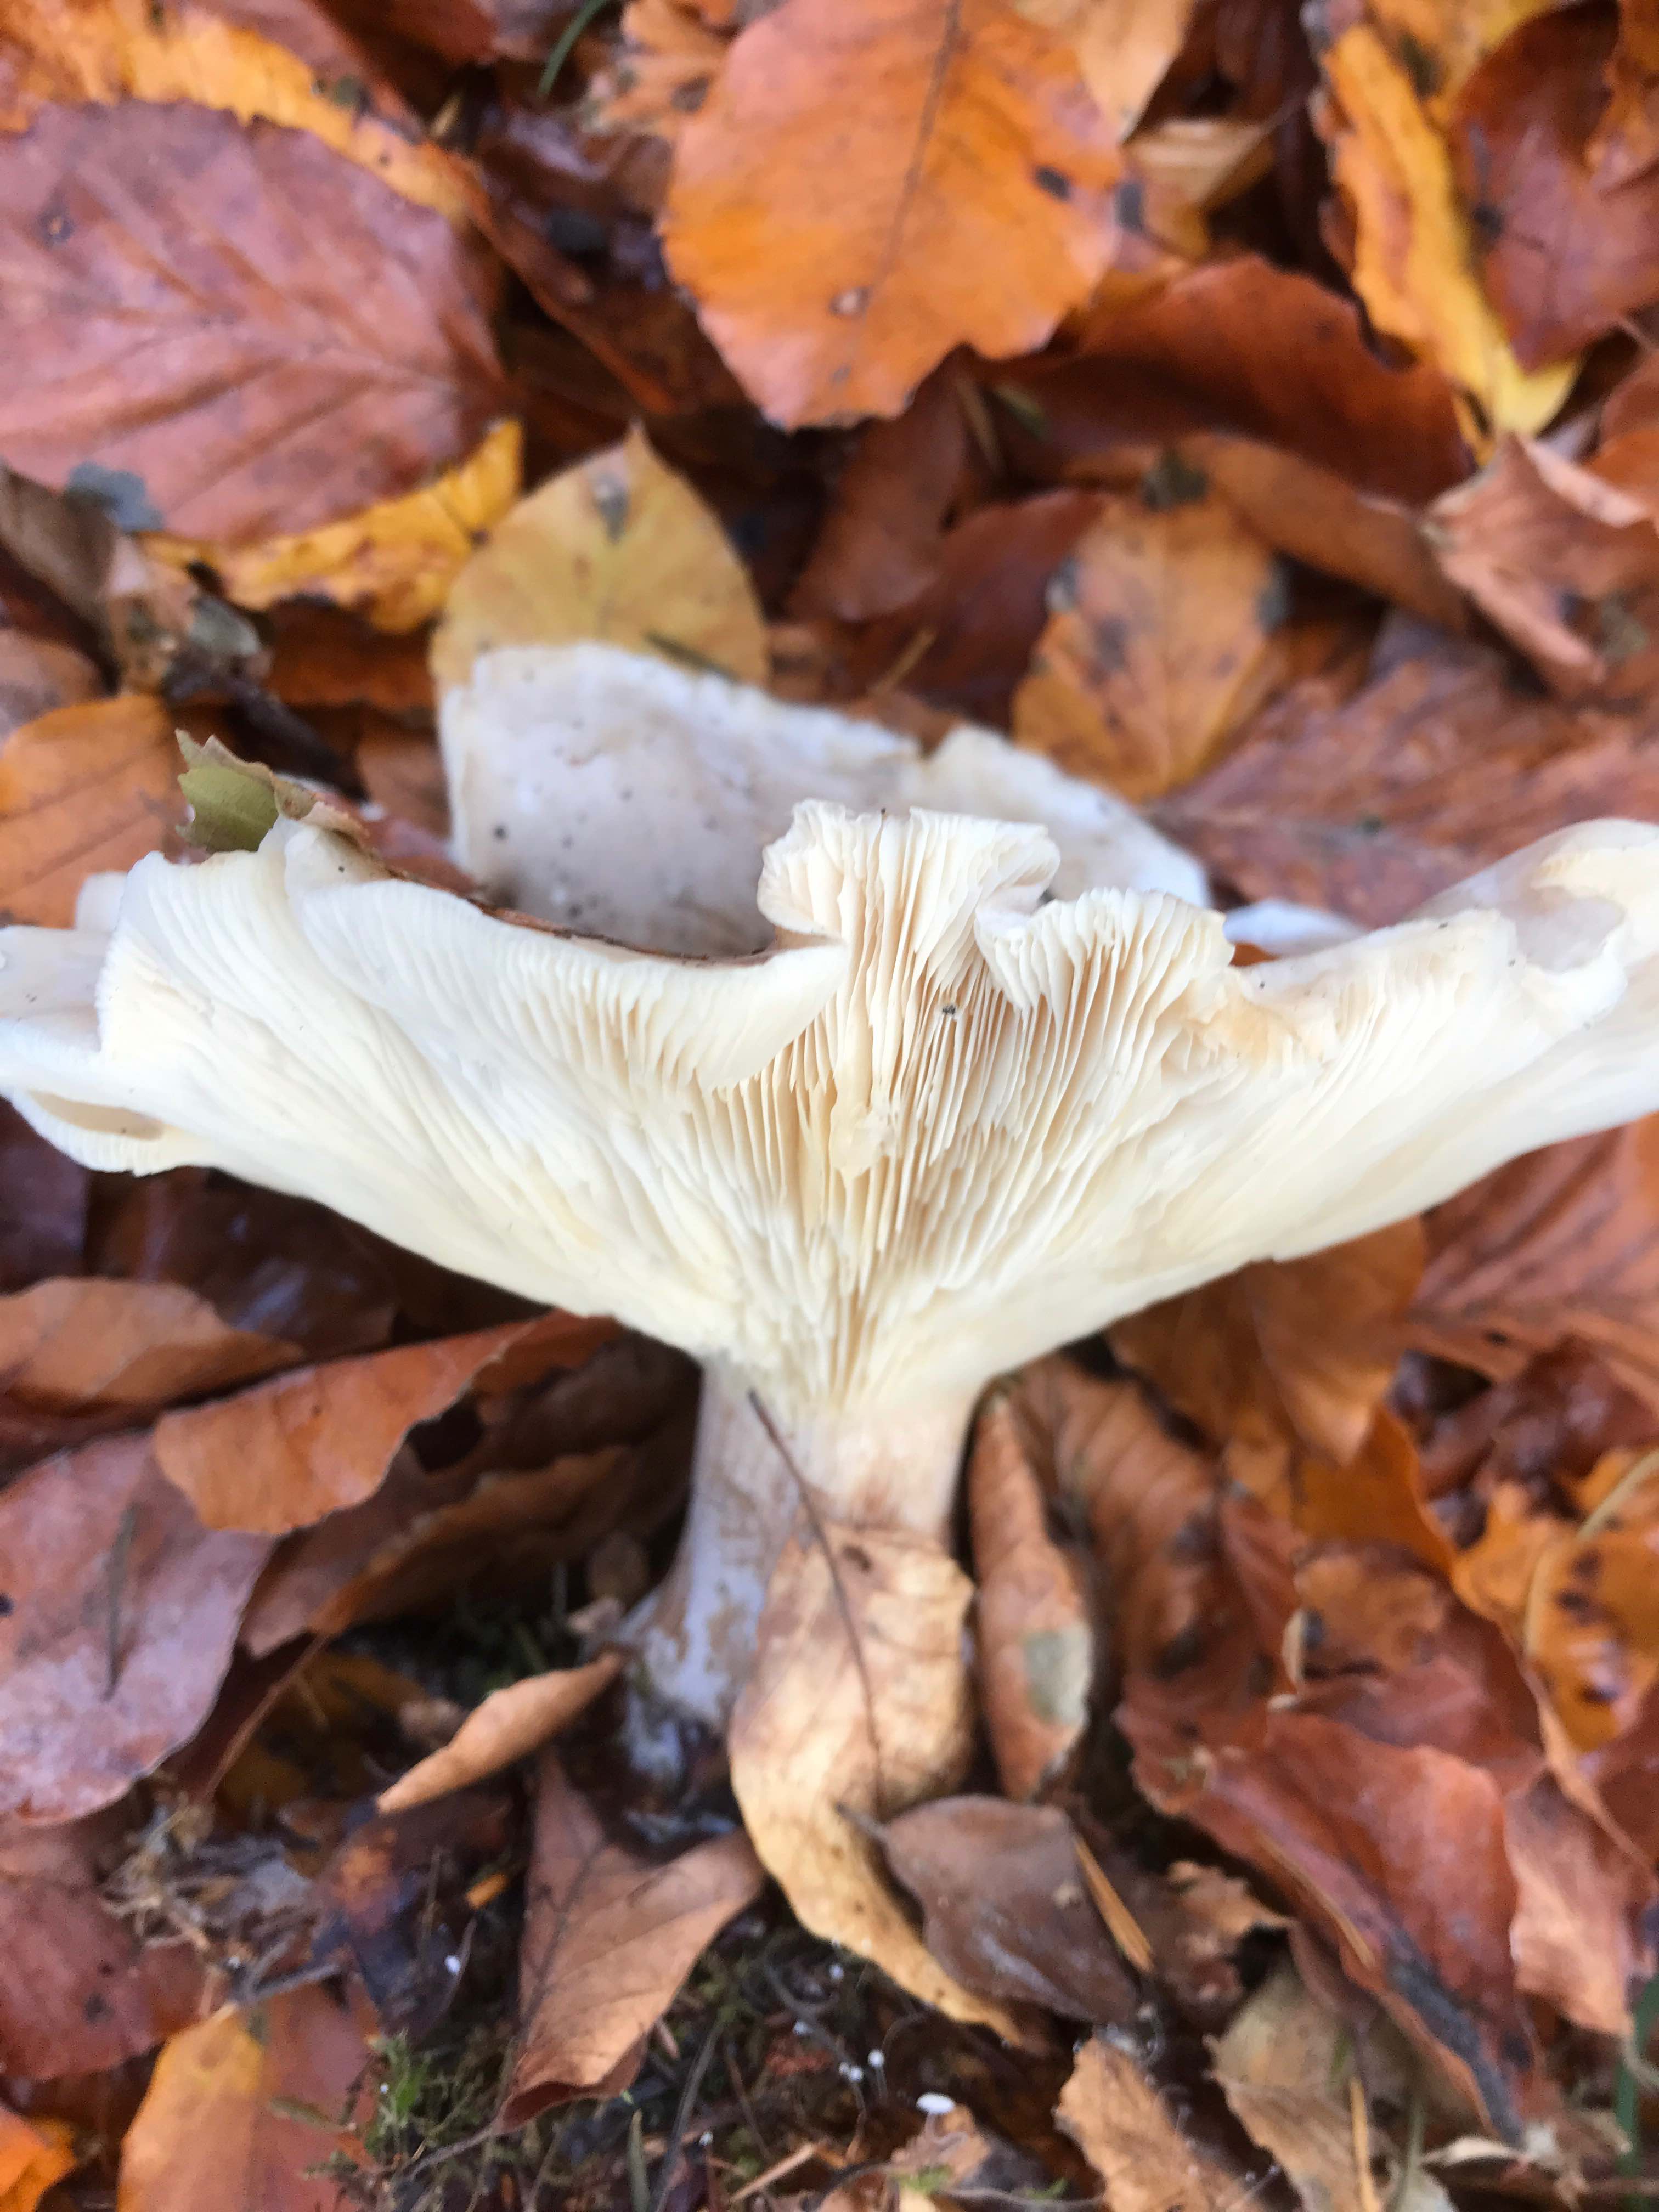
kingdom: Fungi
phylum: Basidiomycota
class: Agaricomycetes
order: Agaricales
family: Tricholomataceae
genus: Clitocybe
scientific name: Clitocybe nebularis
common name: tåge-tragthat
